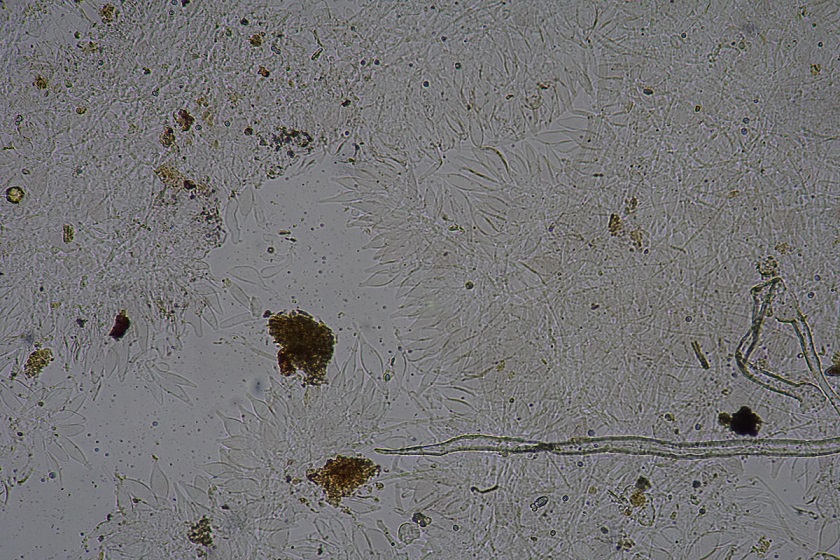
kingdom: Fungi
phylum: Basidiomycota
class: Agaricomycetes
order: Agaricales
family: Pluteaceae
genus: Pluteus
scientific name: Pluteus
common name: gråstokket skærmhat
